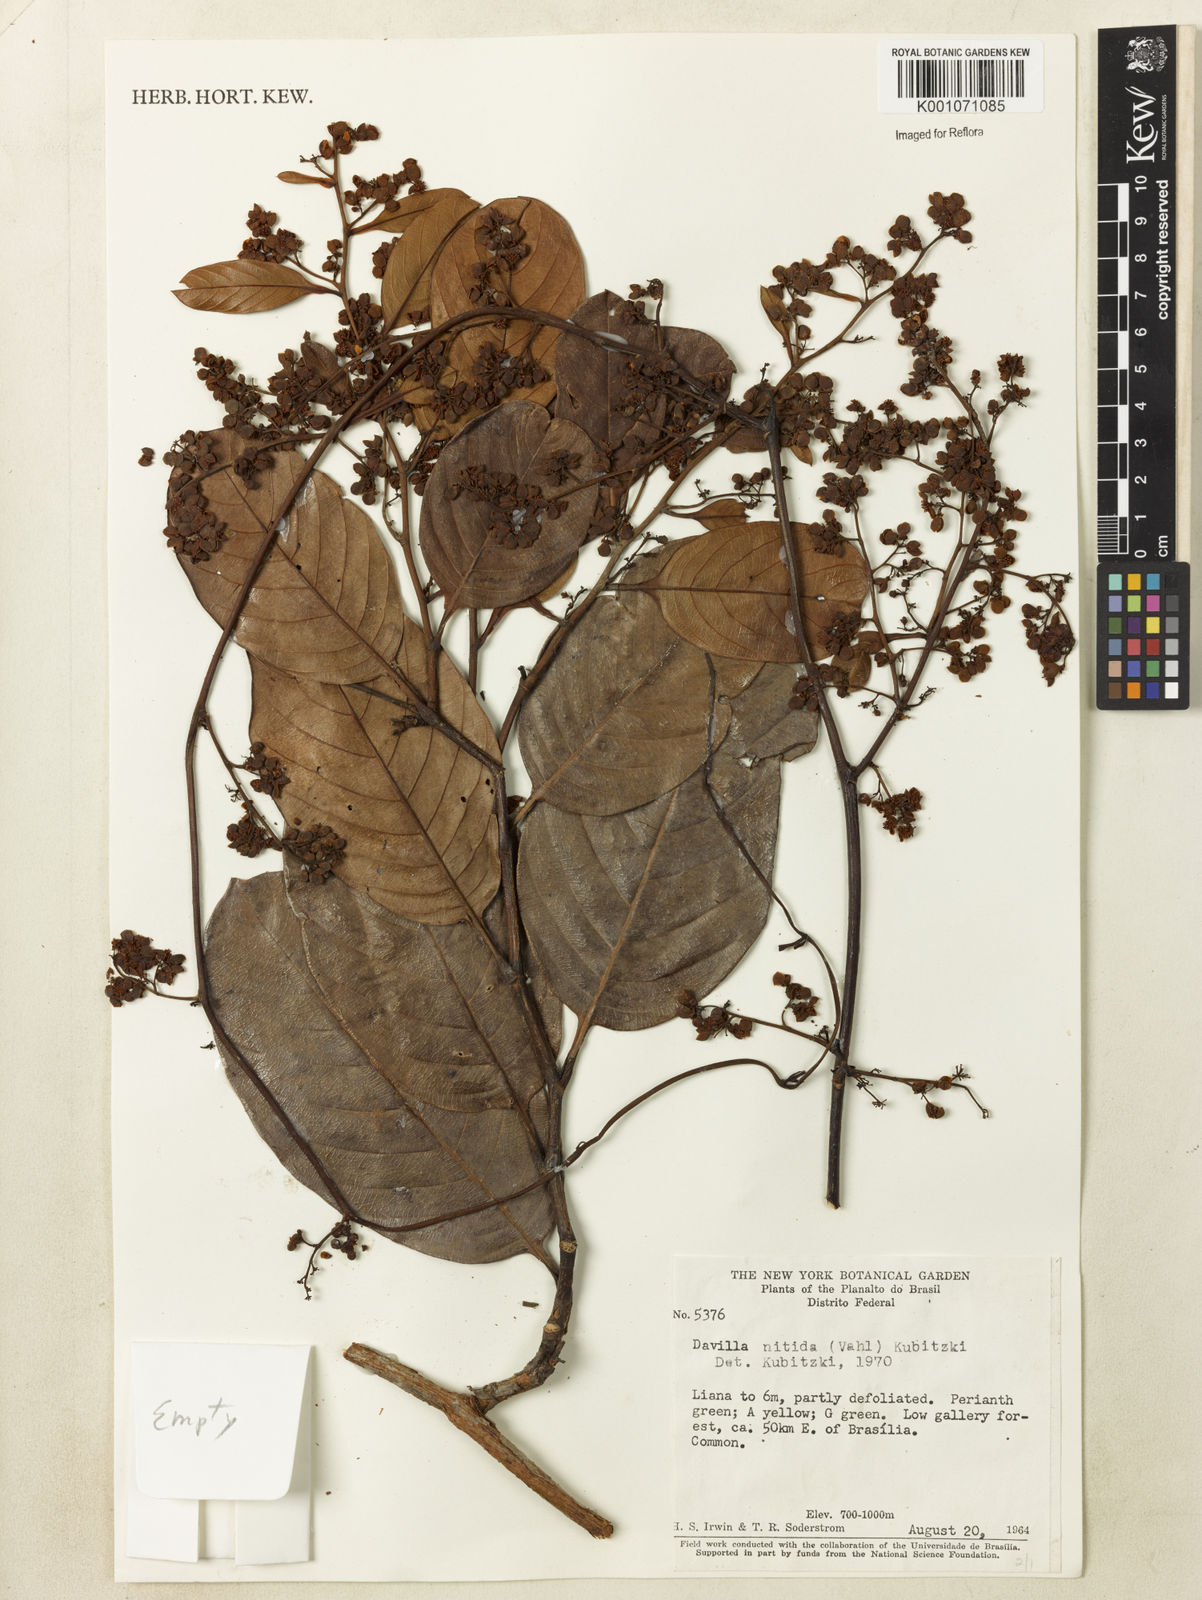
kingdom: Plantae
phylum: Tracheophyta
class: Magnoliopsida
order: Dilleniales
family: Dilleniaceae
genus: Davilla
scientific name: Davilla nitida
